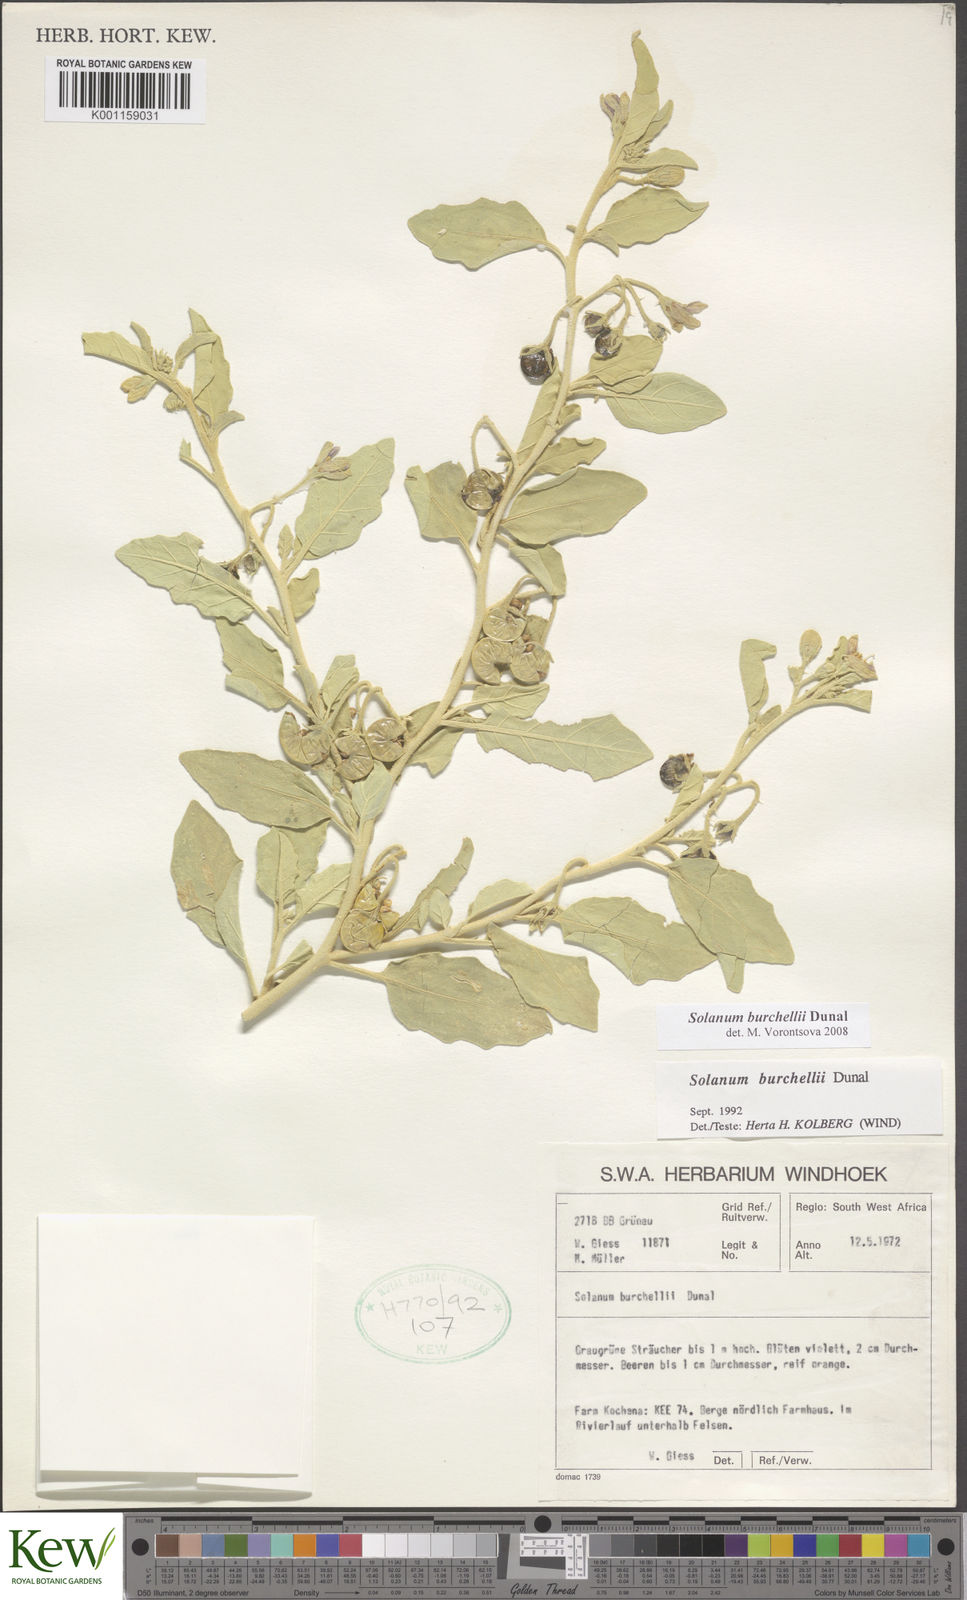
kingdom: Plantae
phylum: Tracheophyta
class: Magnoliopsida
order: Solanales
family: Solanaceae
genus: Solanum
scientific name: Solanum burchellii
